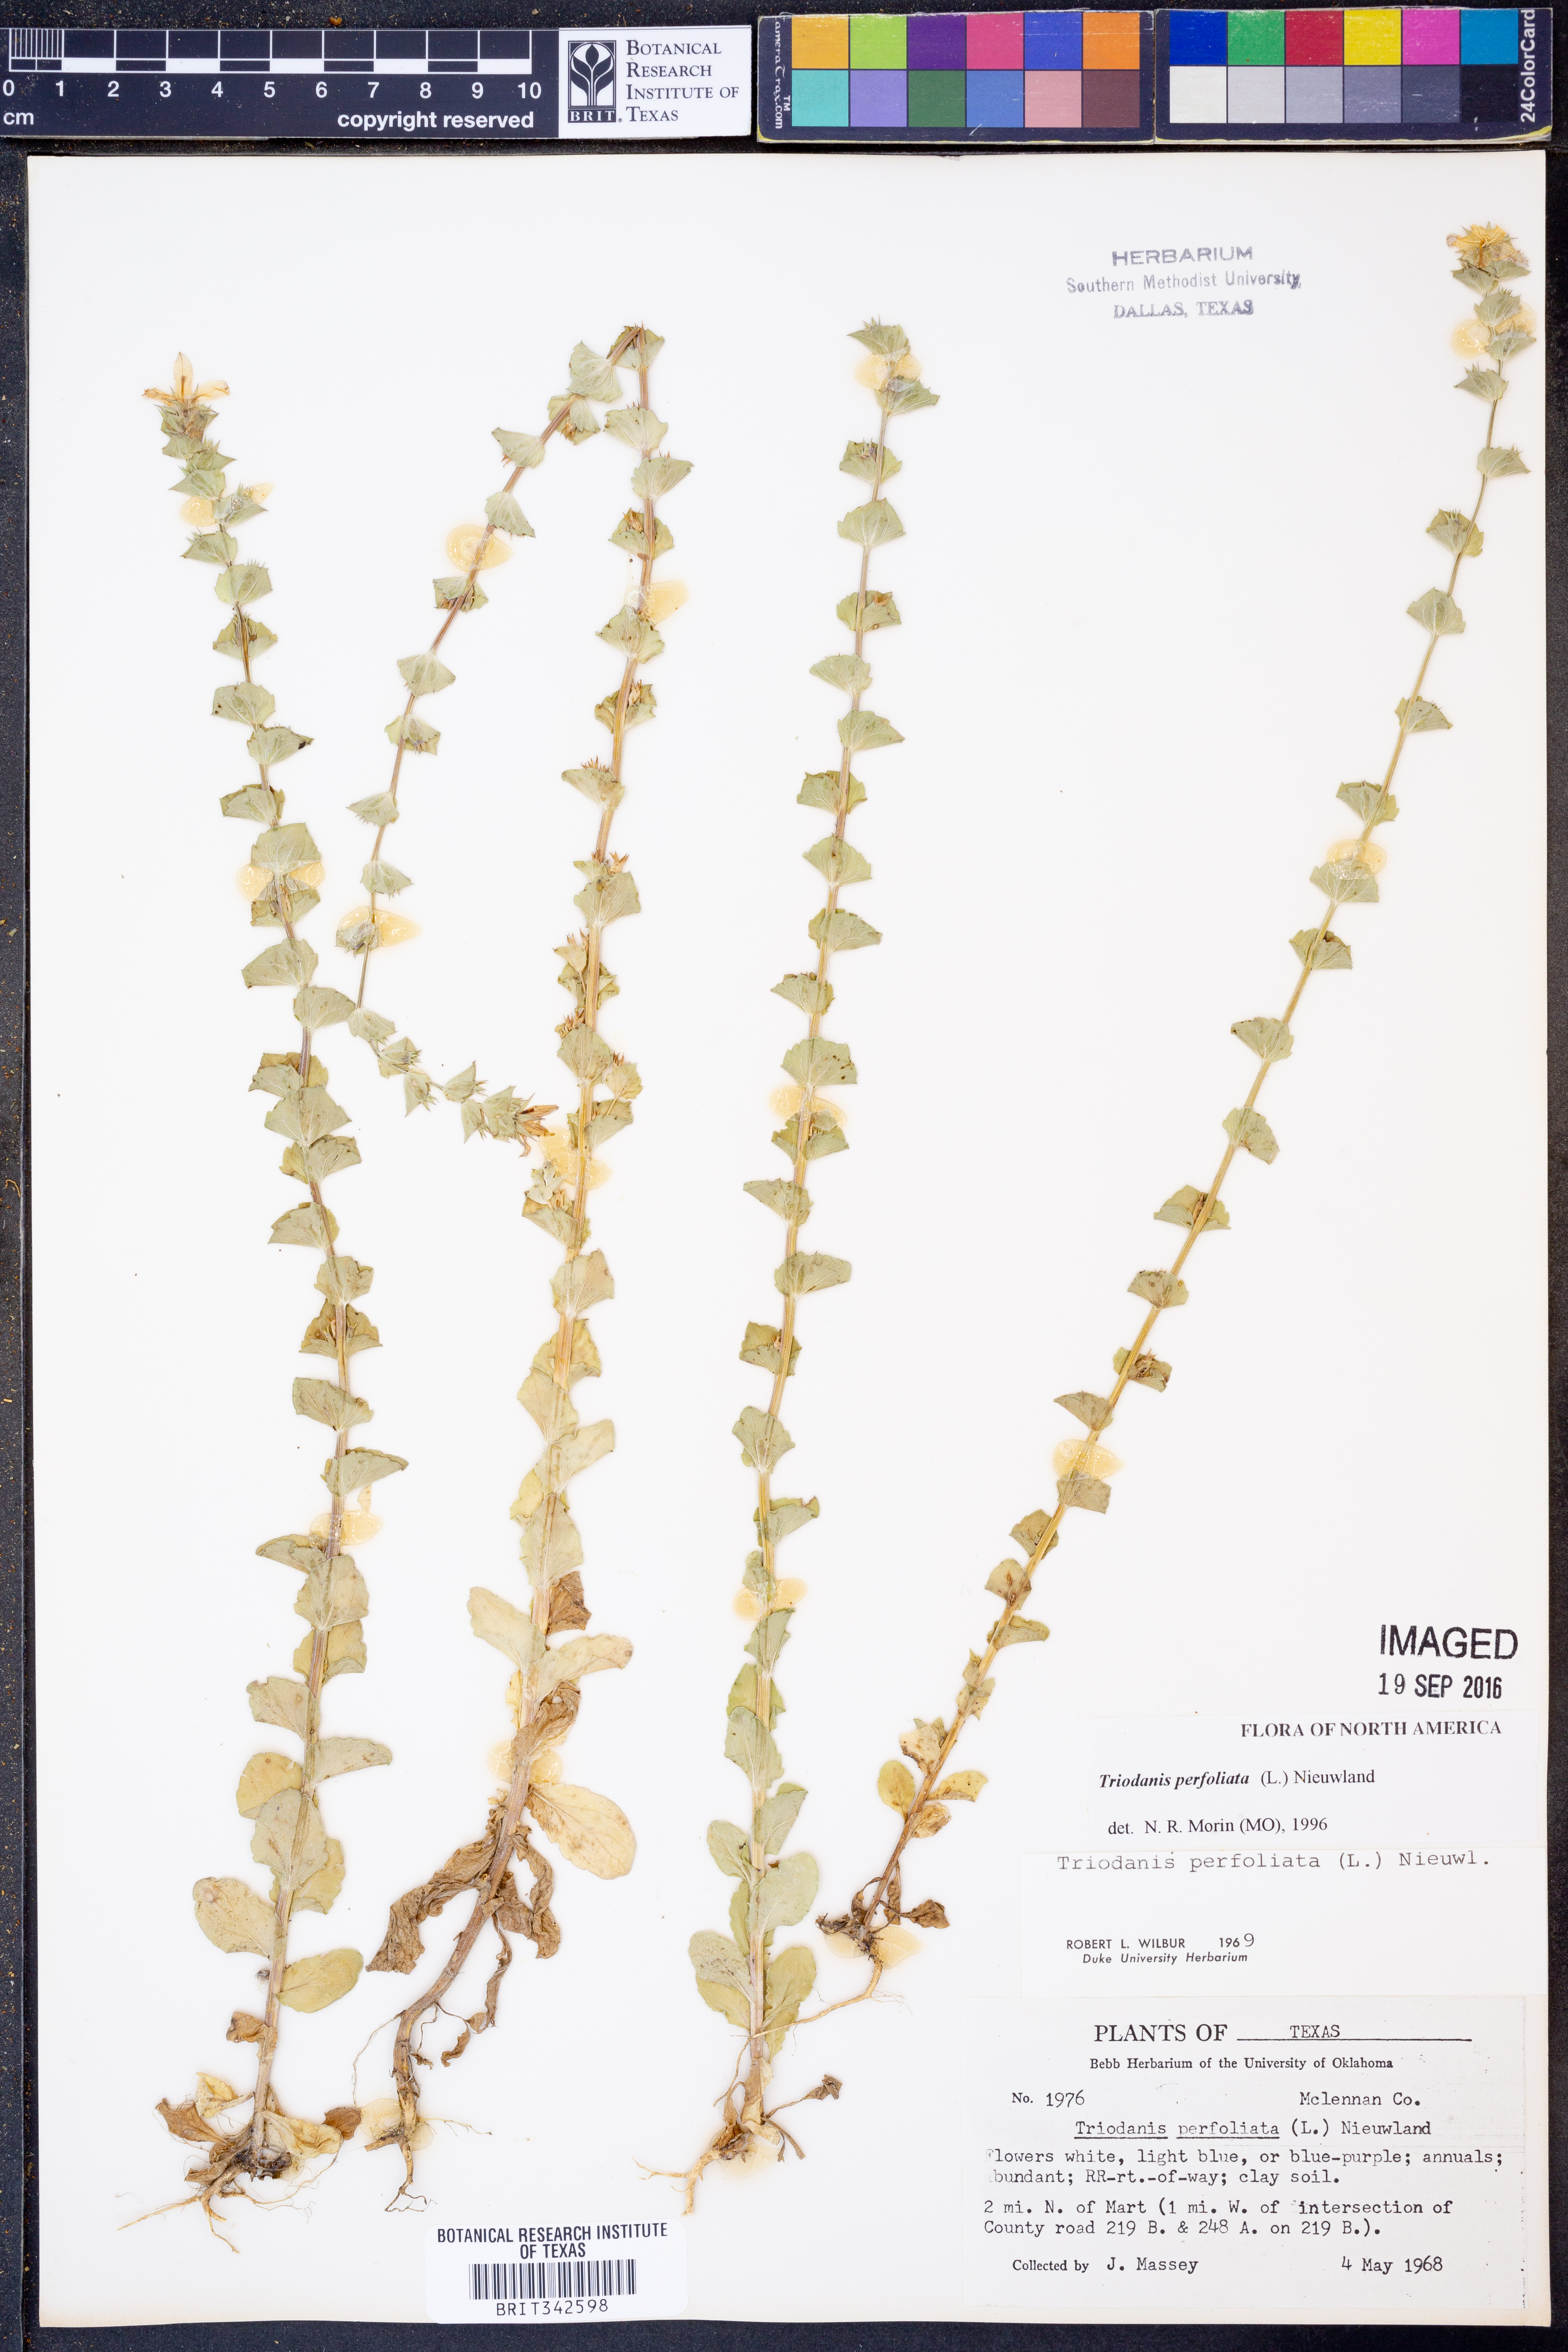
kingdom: Plantae
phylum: Tracheophyta
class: Magnoliopsida
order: Asterales
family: Campanulaceae
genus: Triodanis
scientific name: Triodanis perfoliata
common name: Clasping venus' looking-glass
